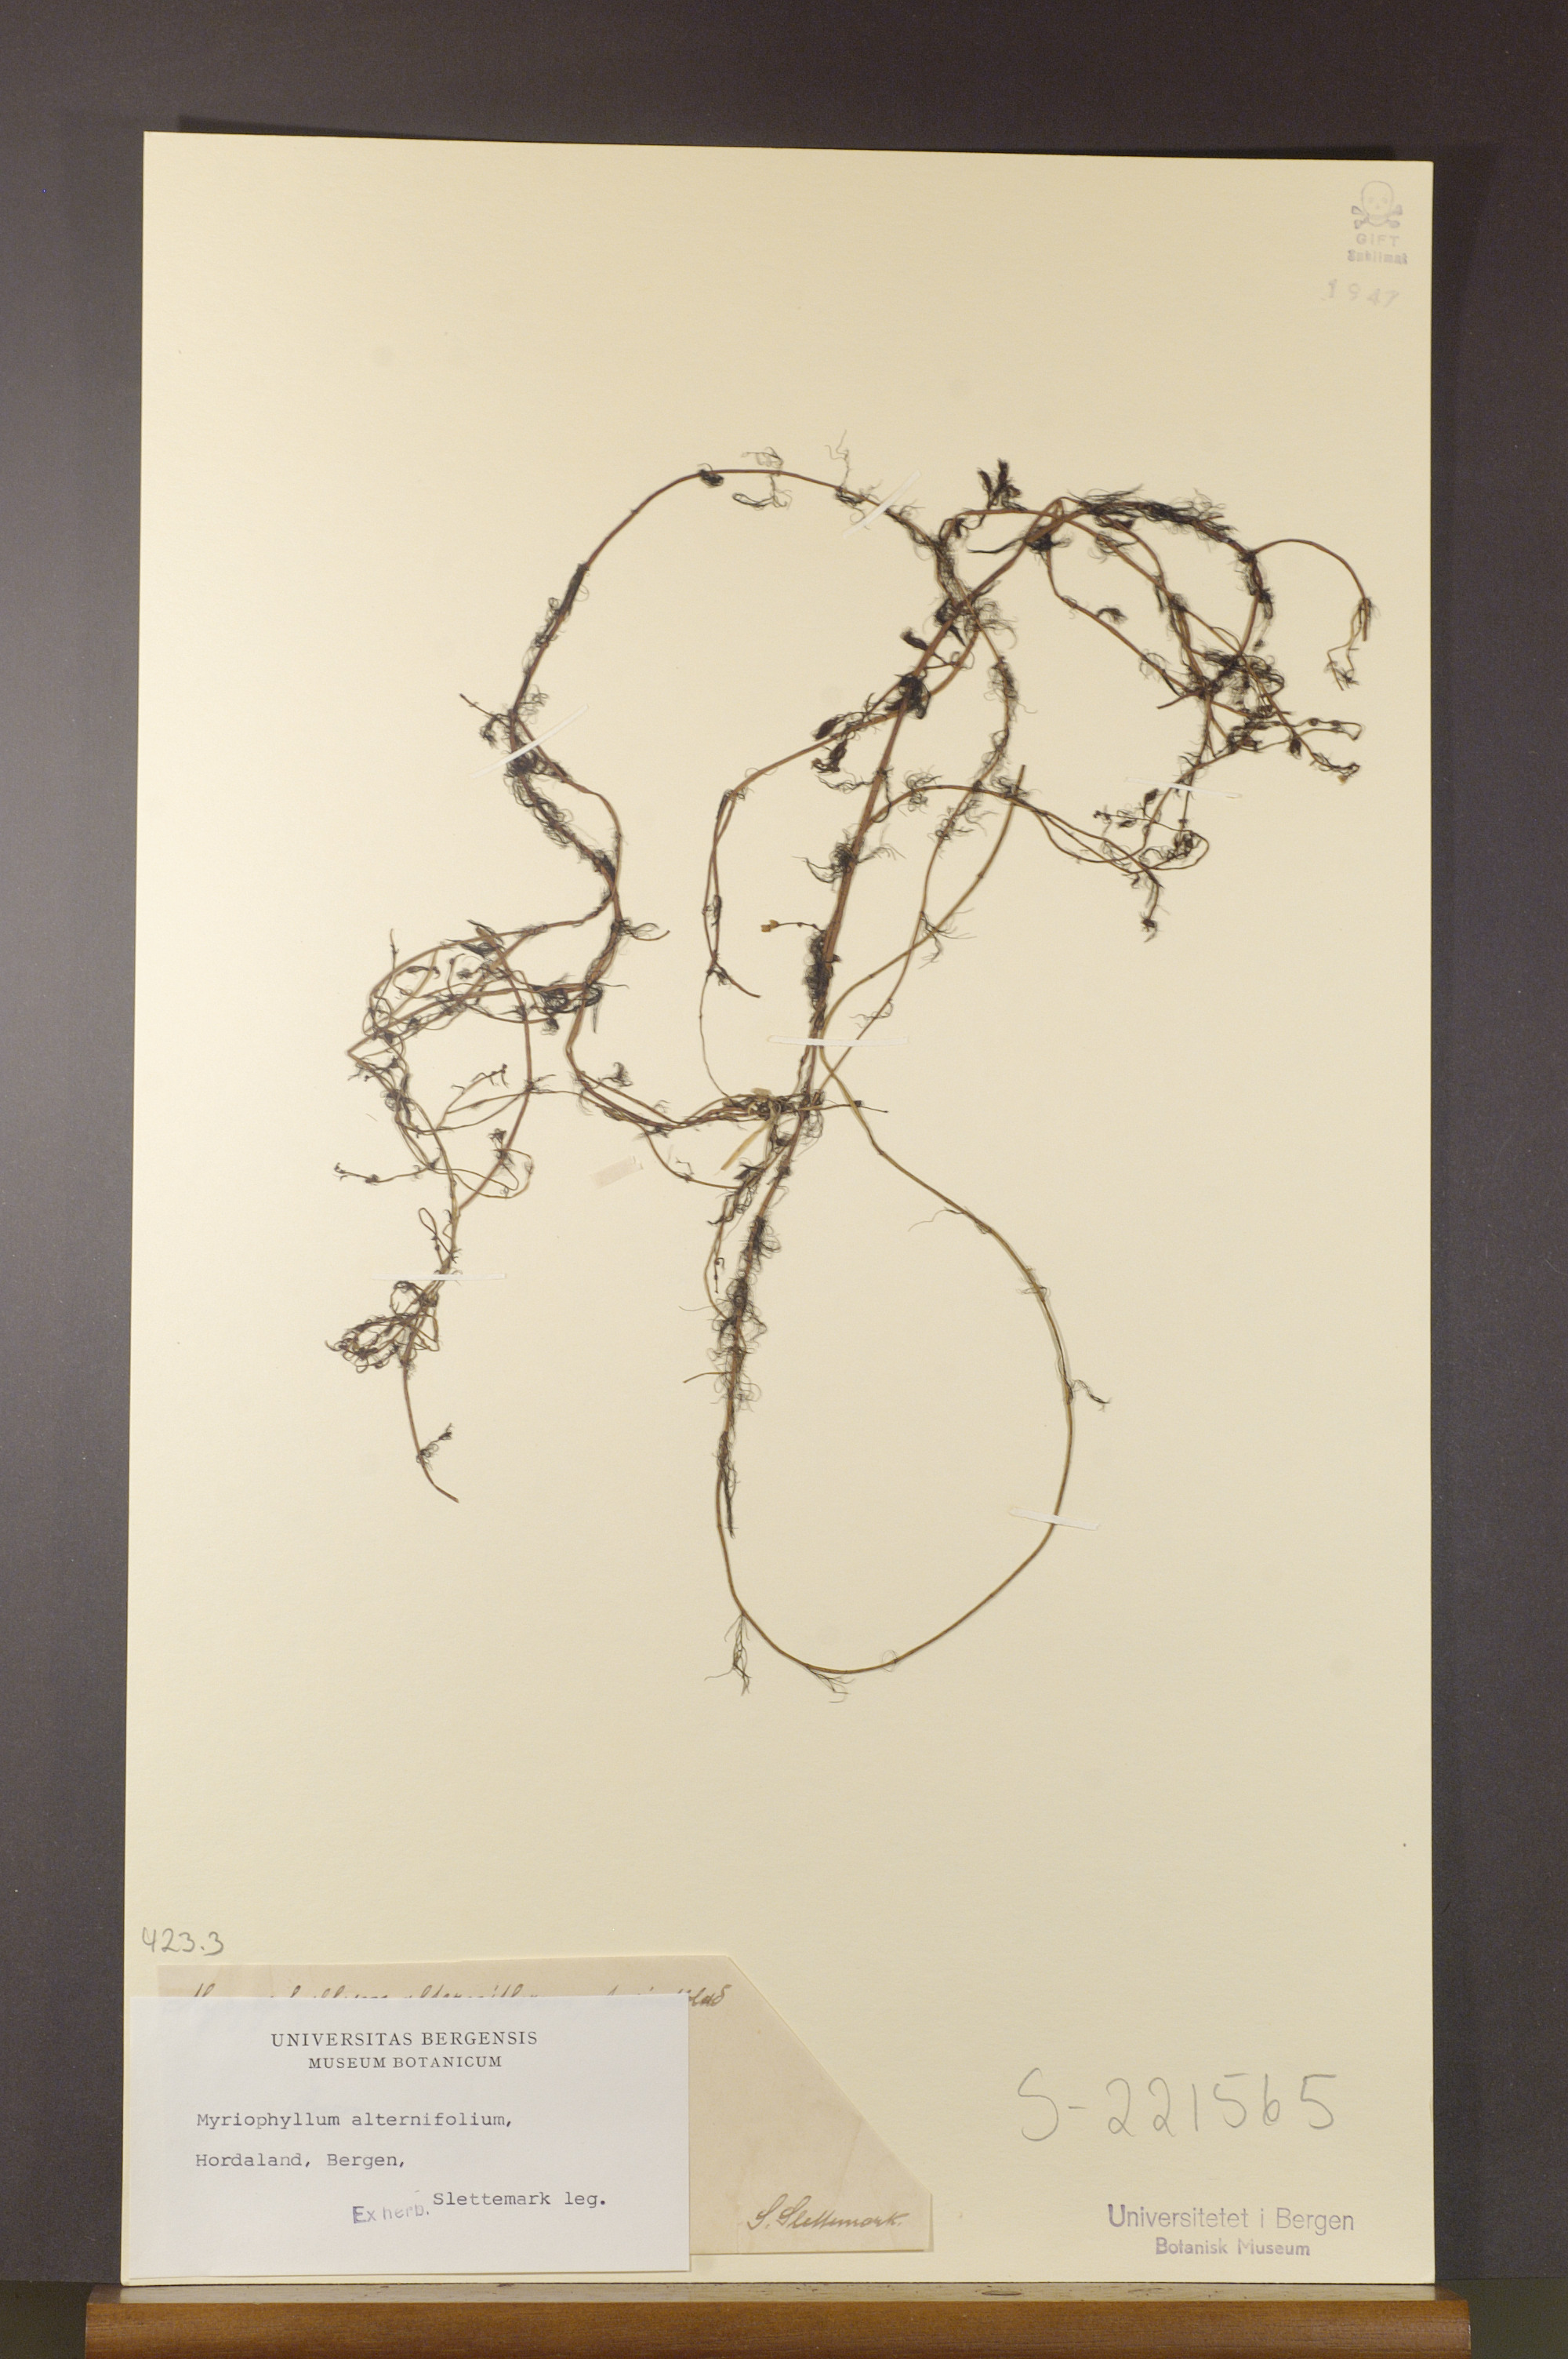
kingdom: Plantae
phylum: Tracheophyta
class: Magnoliopsida
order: Saxifragales
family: Haloragaceae
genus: Myriophyllum
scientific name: Myriophyllum alterniflorum
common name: Alternate water-milfoil
